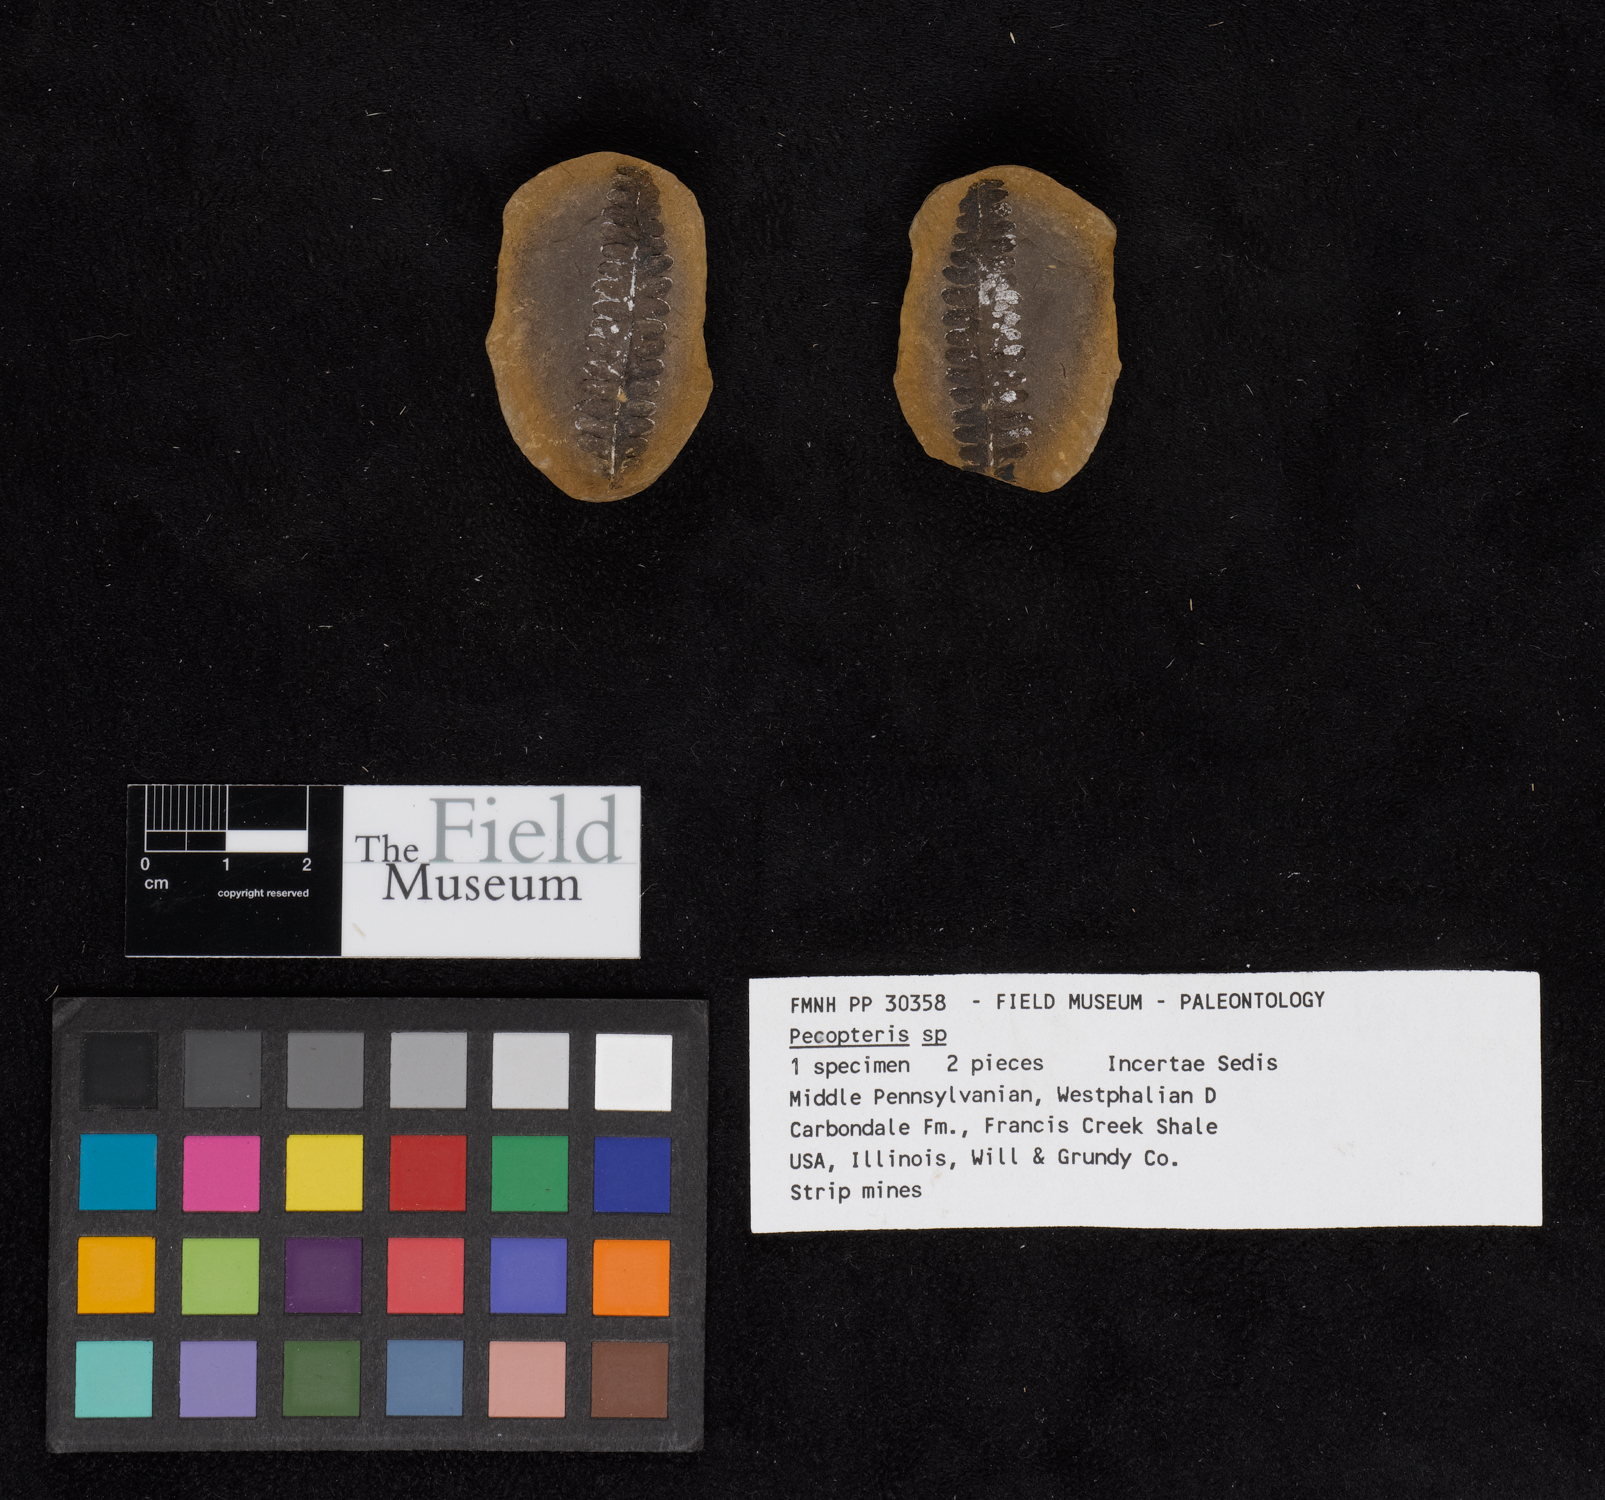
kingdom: Plantae
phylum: Tracheophyta
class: Polypodiopsida
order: Marattiales
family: Asterothecaceae
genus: Pecopteris
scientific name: Pecopteris
